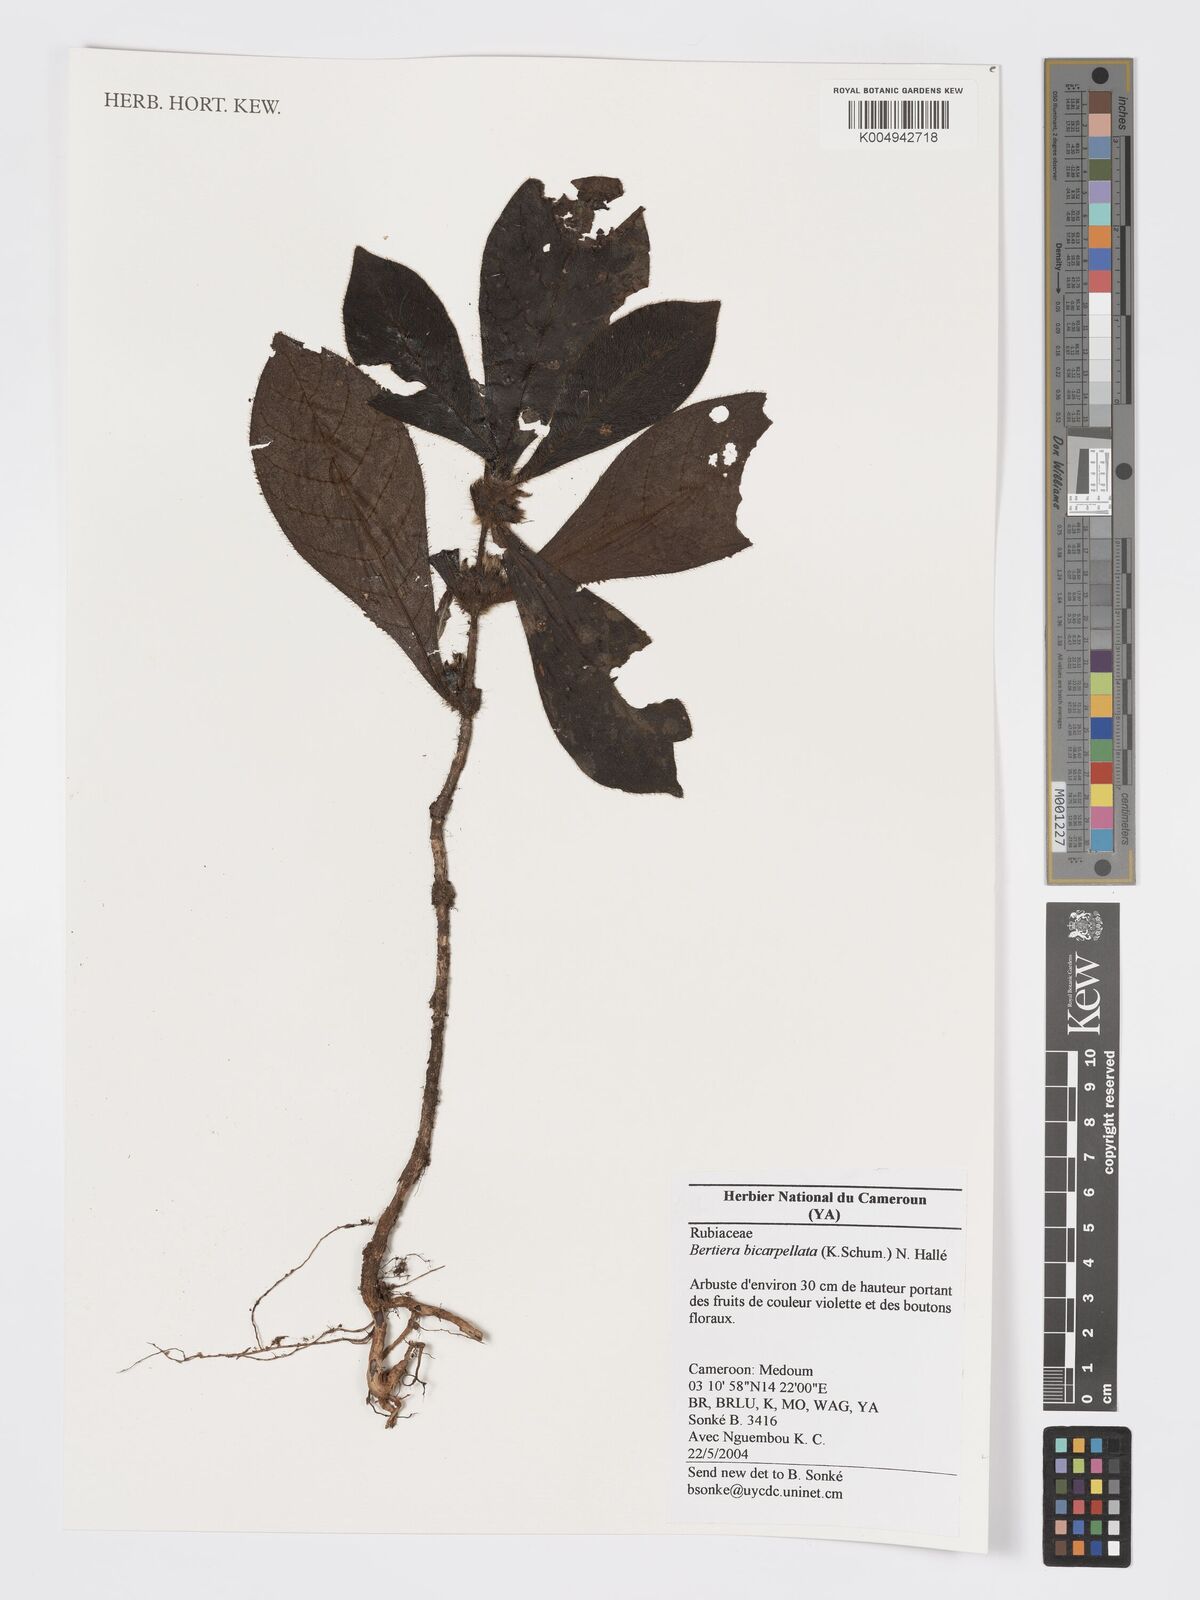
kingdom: Plantae
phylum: Tracheophyta
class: Magnoliopsida
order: Gentianales
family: Rubiaceae
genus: Bertiera
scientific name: Bertiera bicarpellata
